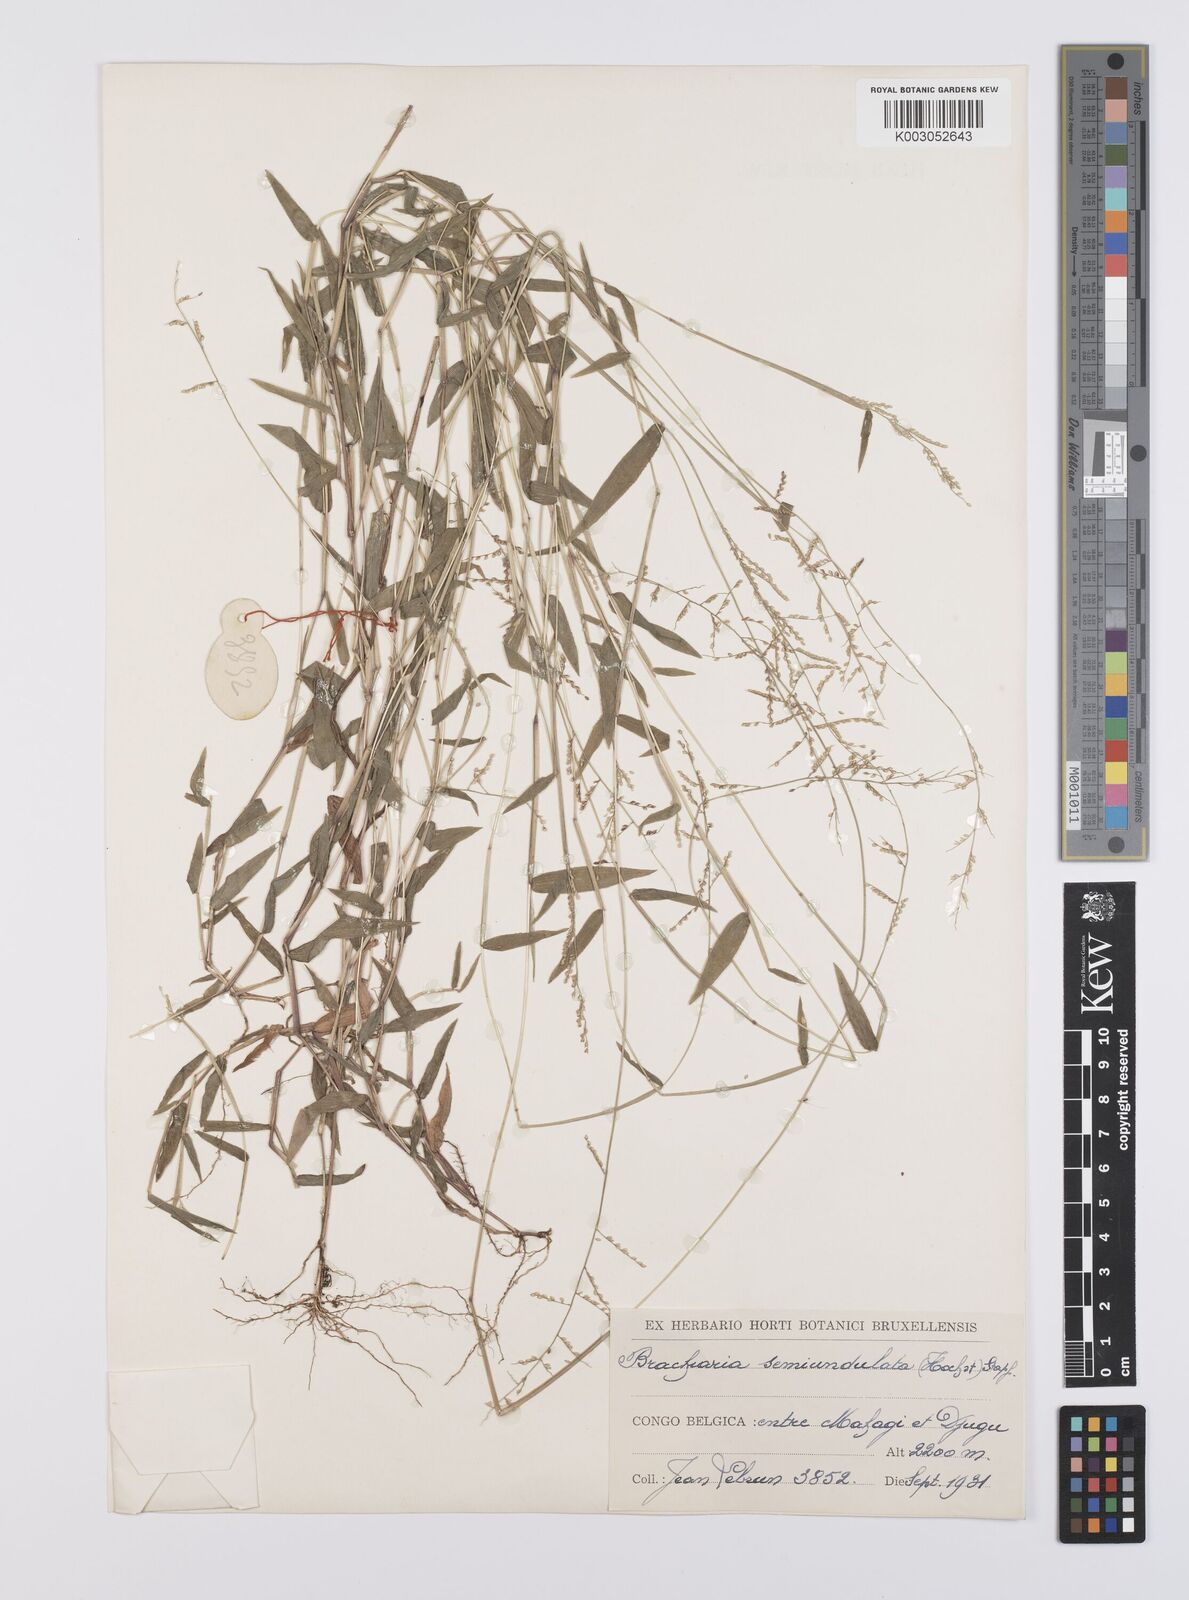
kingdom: Plantae
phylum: Tracheophyta
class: Liliopsida
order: Poales
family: Poaceae
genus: Urochloa
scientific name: Urochloa comata
